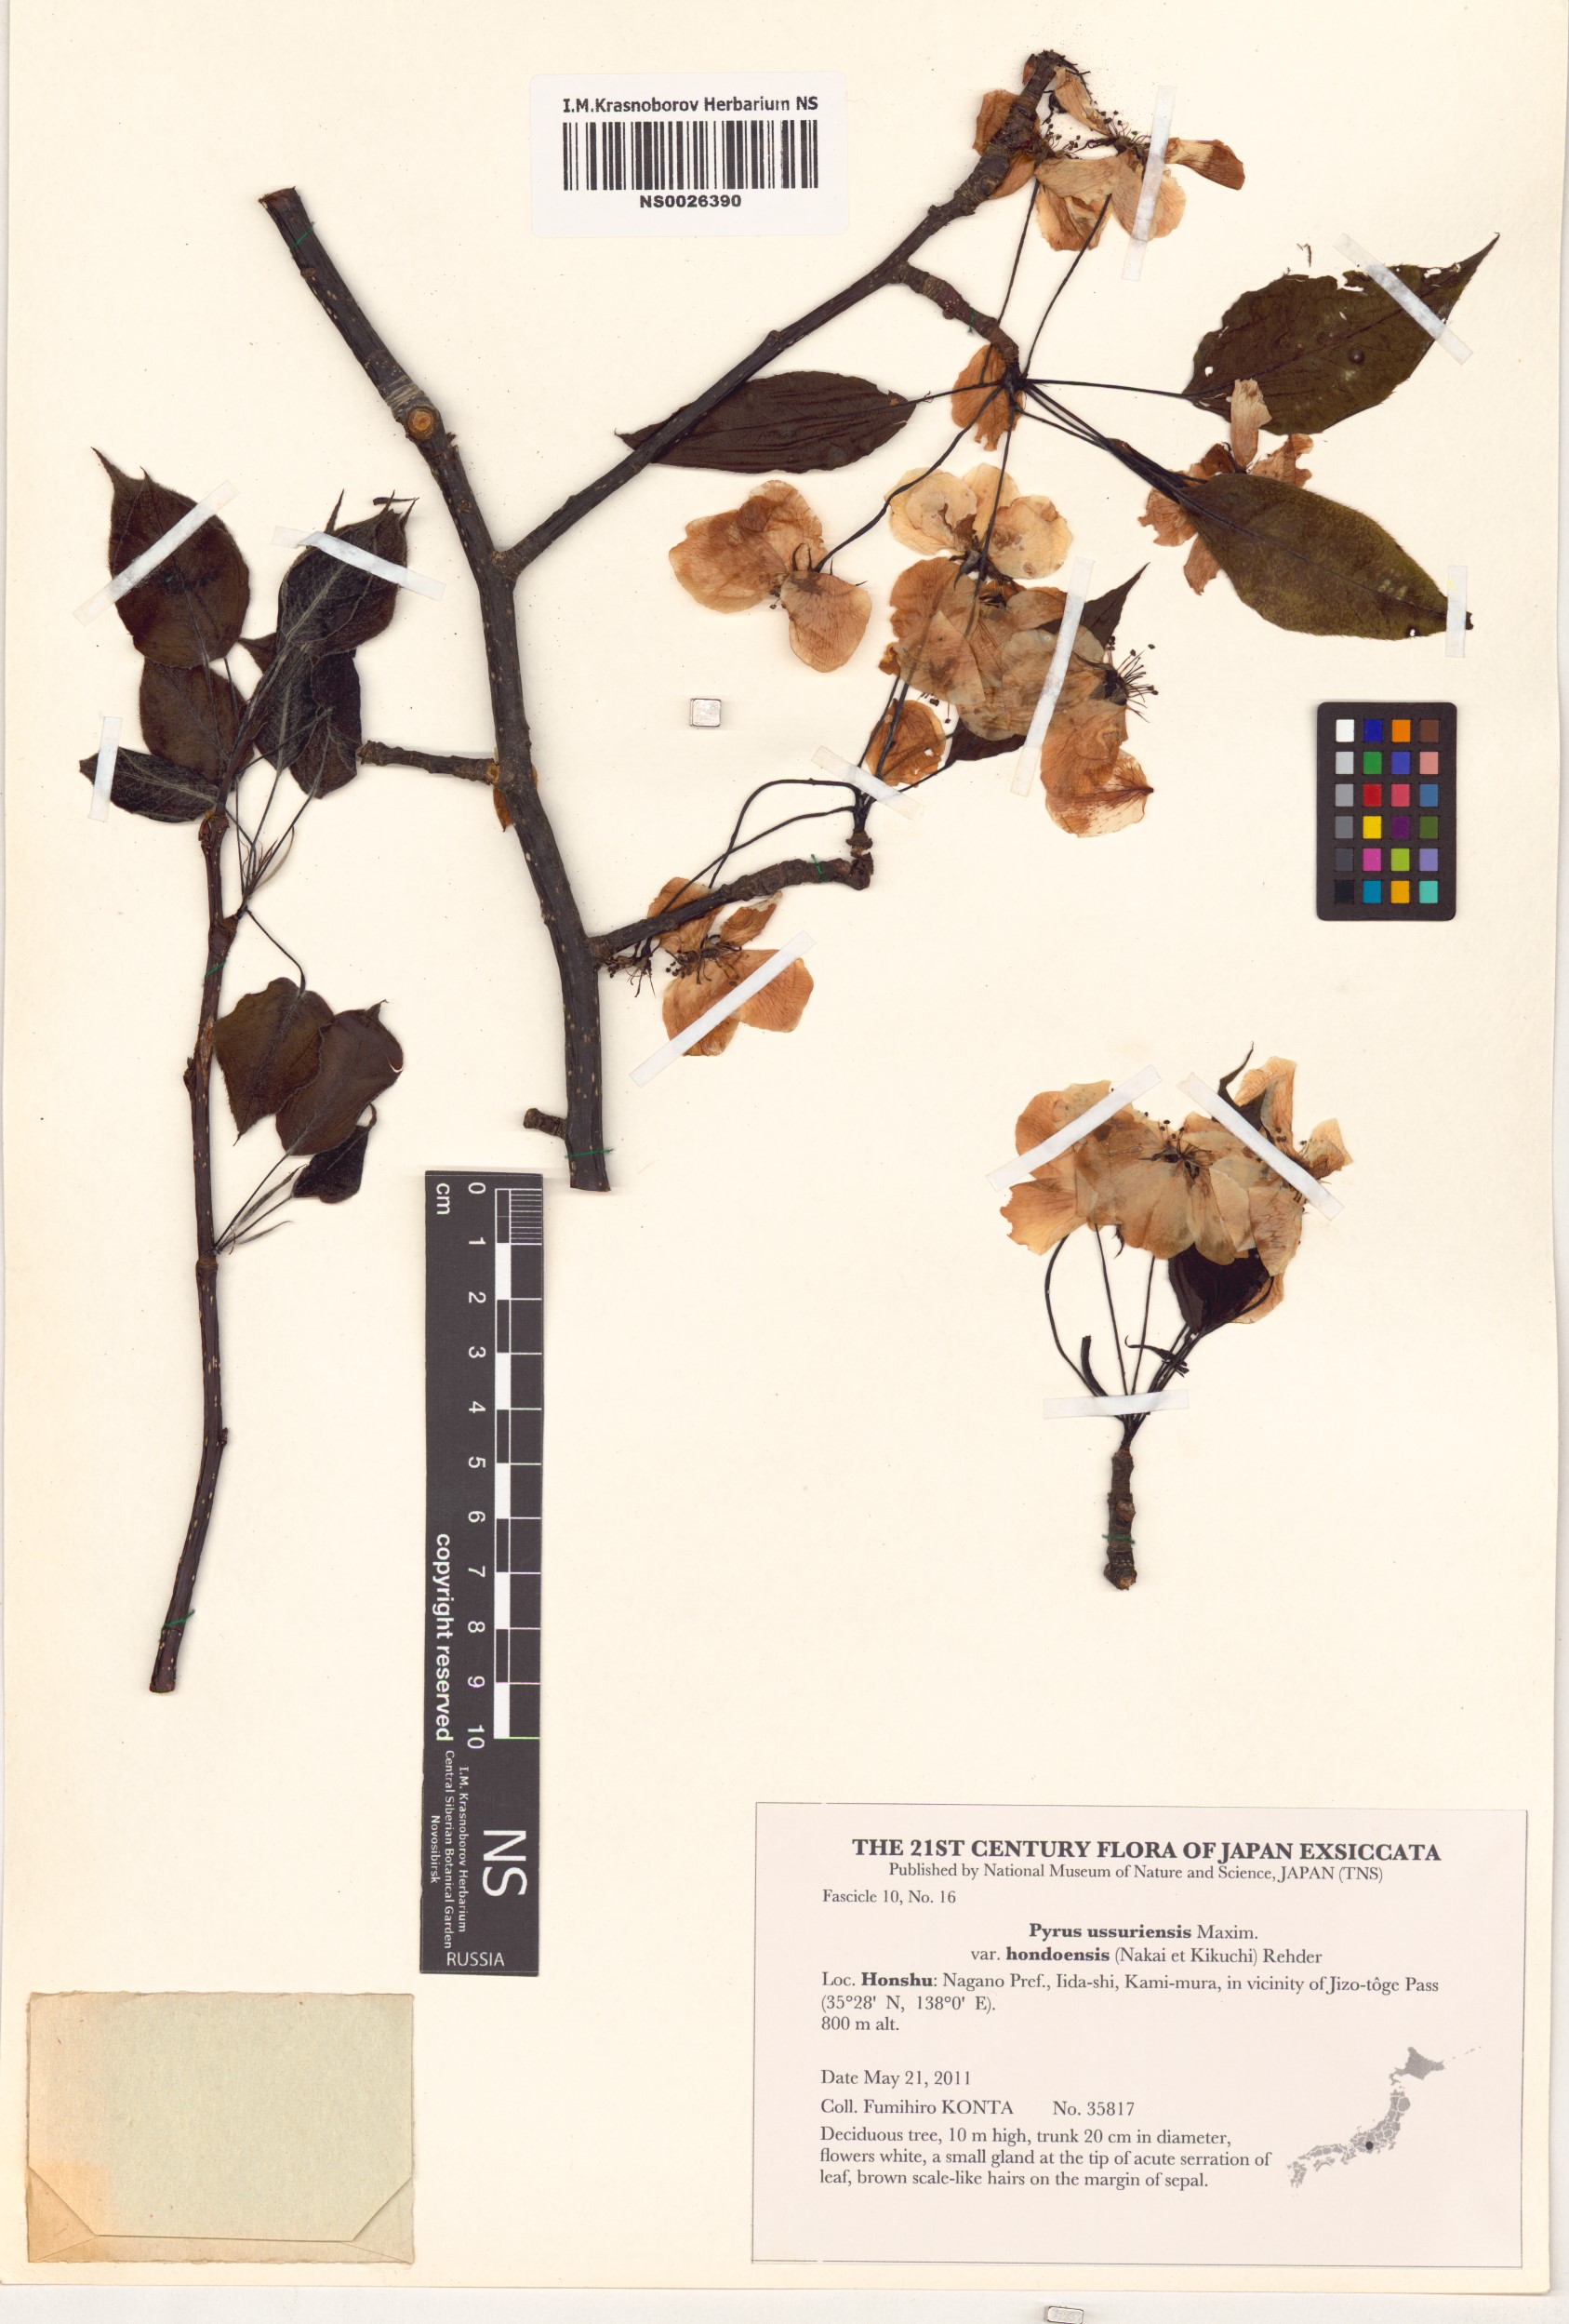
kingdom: Plantae
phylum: Tracheophyta
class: Magnoliopsida
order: Rosales
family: Rosaceae
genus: Pyrus
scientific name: Pyrus ussuriensis
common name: Harbin pear
